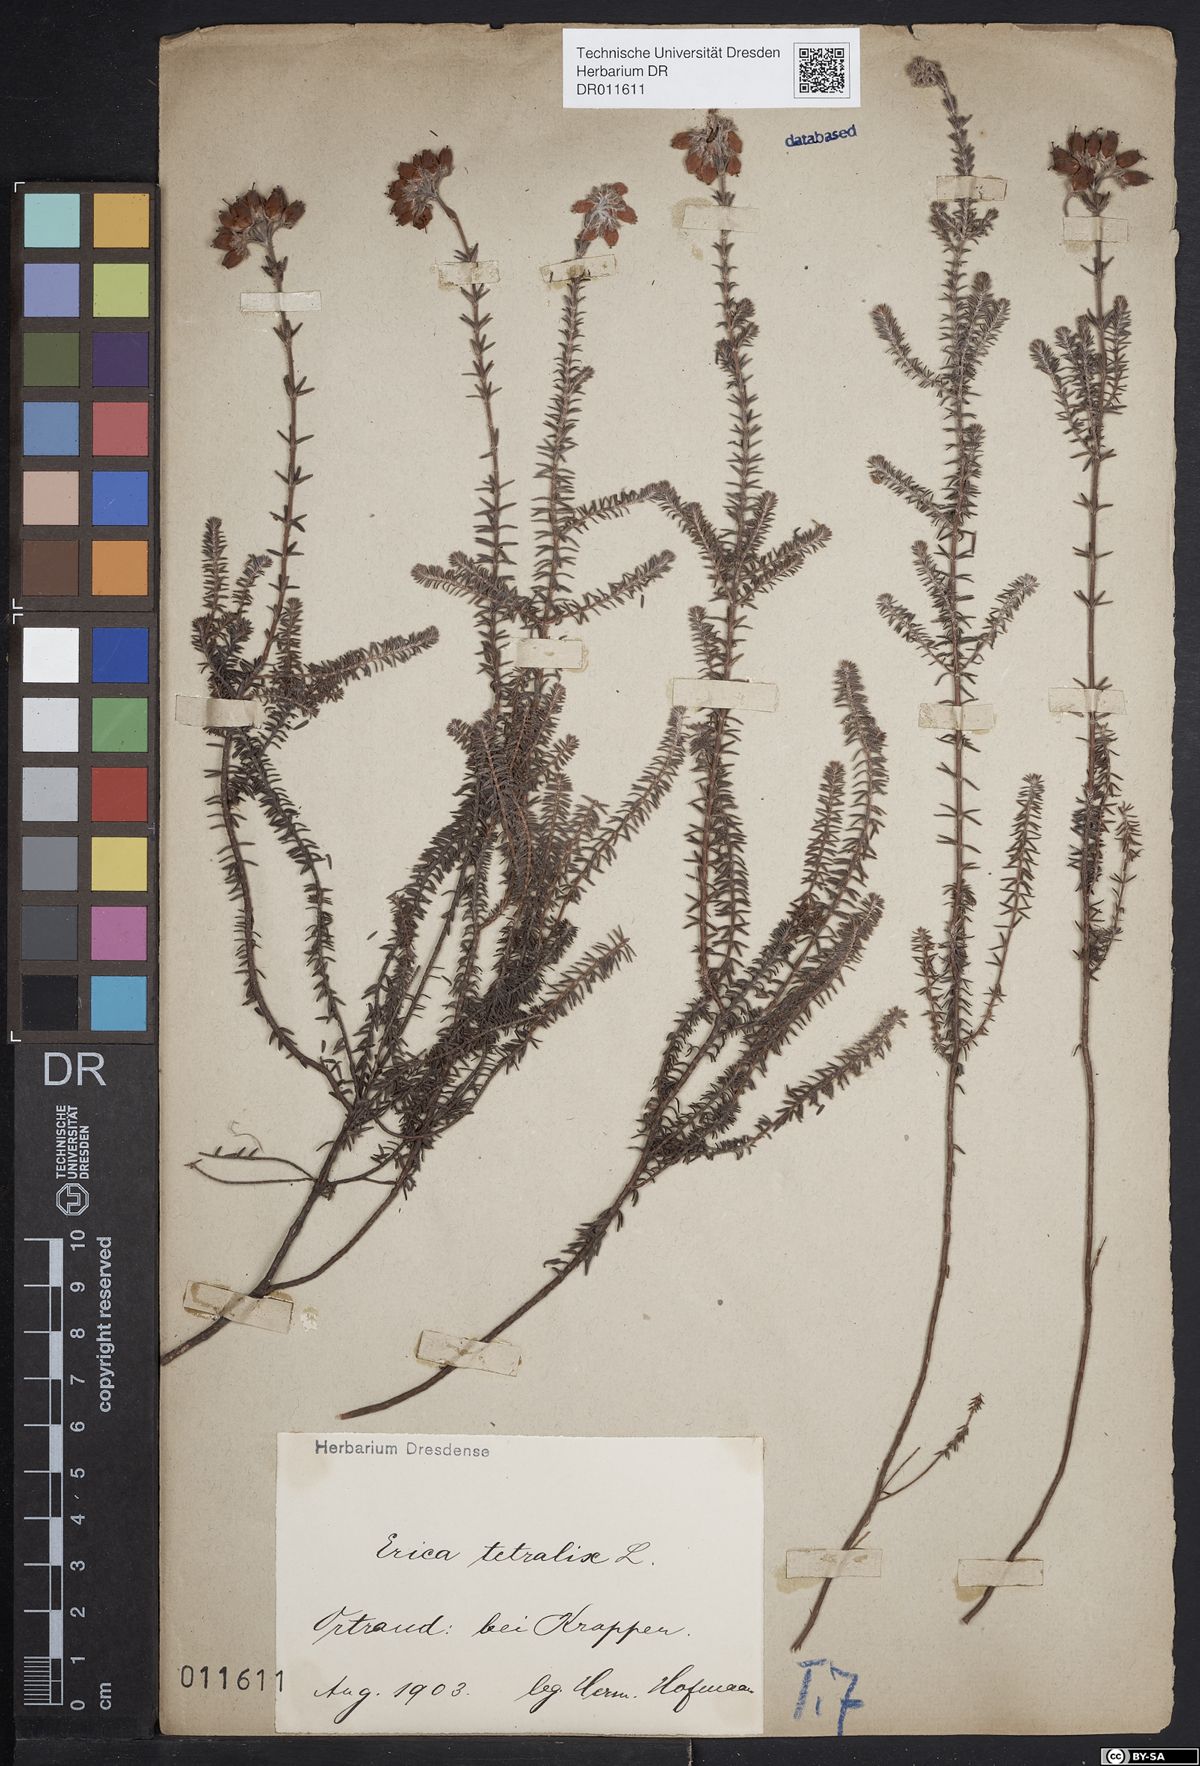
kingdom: Plantae
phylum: Tracheophyta
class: Magnoliopsida
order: Ericales
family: Ericaceae
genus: Erica
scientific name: Erica tetralix
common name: Cross-leaved heath
